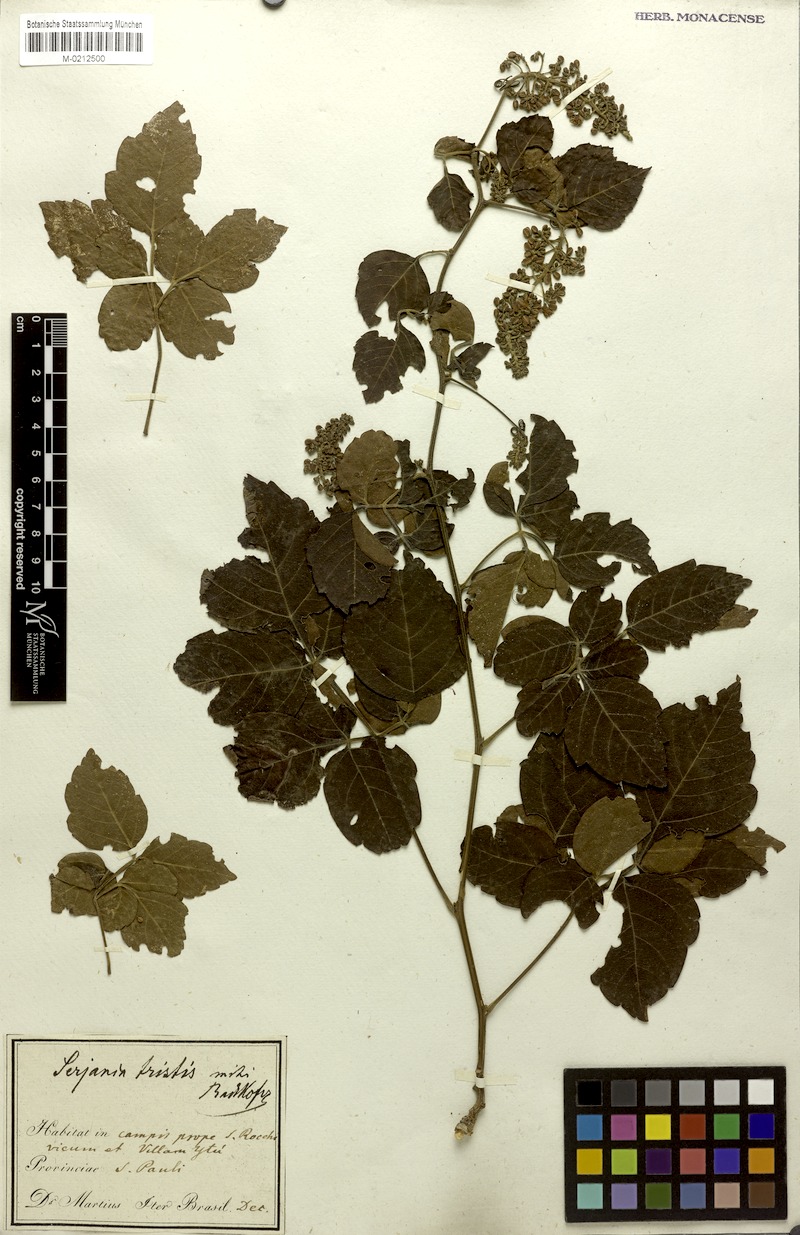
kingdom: Plantae
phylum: Tracheophyta
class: Magnoliopsida
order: Sapindales
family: Sapindaceae
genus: Serjania
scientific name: Serjania tristis
